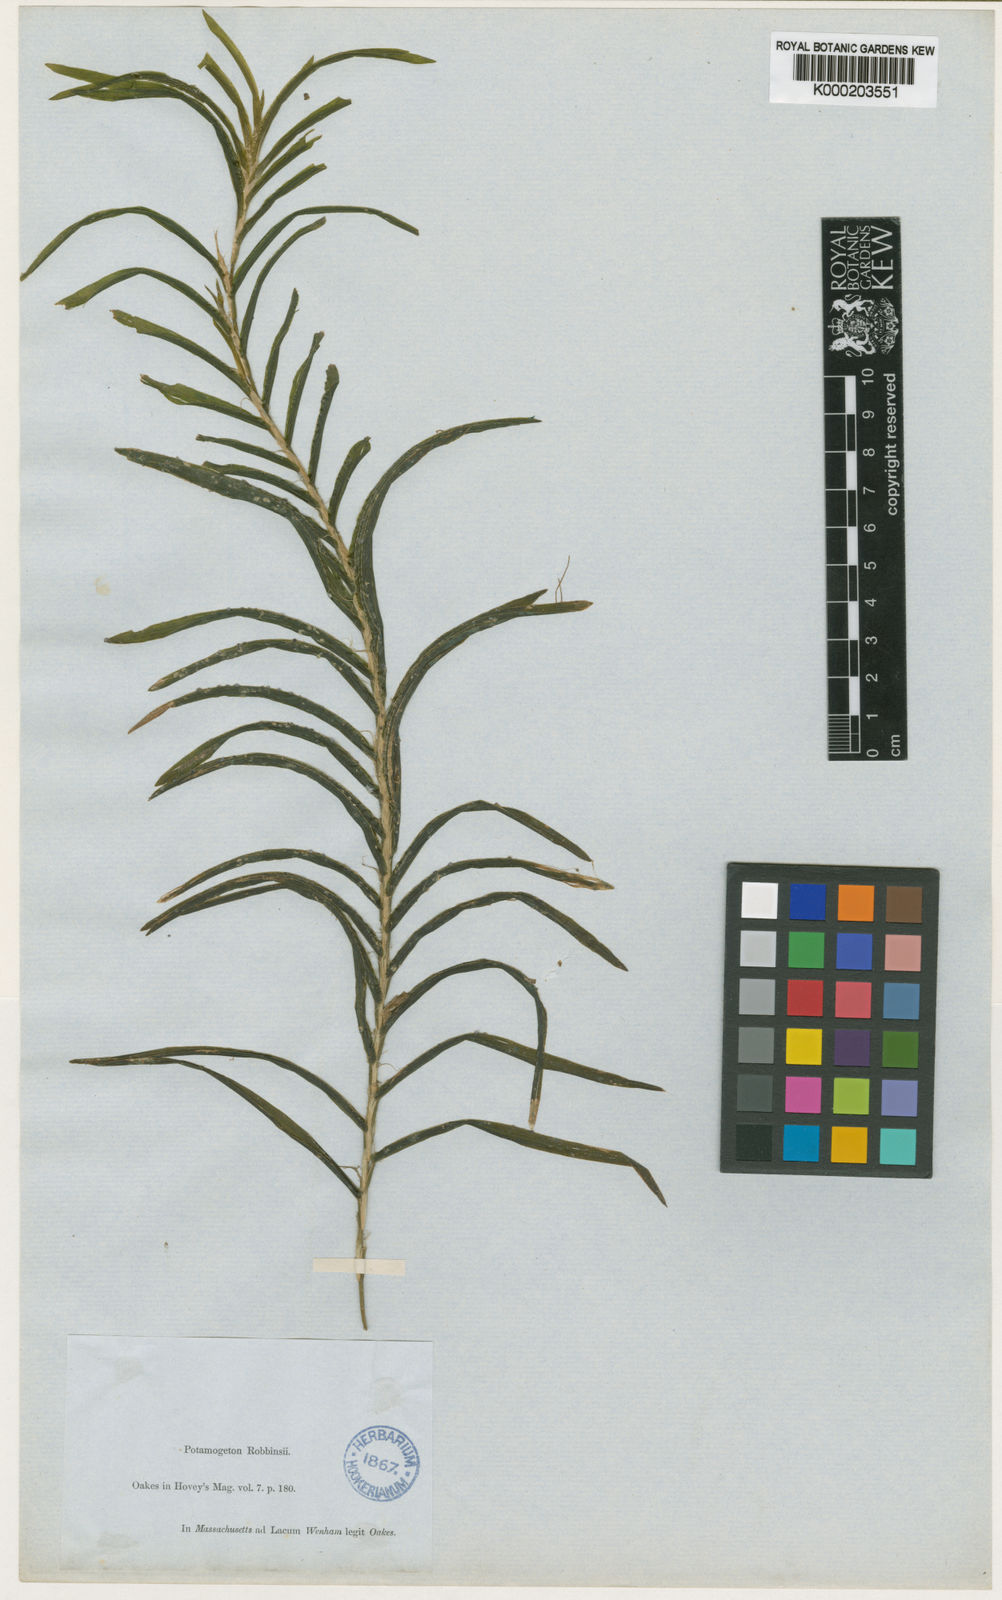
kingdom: Plantae
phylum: Tracheophyta
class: Liliopsida
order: Alismatales
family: Potamogetonaceae
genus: Potamogeton
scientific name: Potamogeton robbinsii
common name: Fern pondweed
